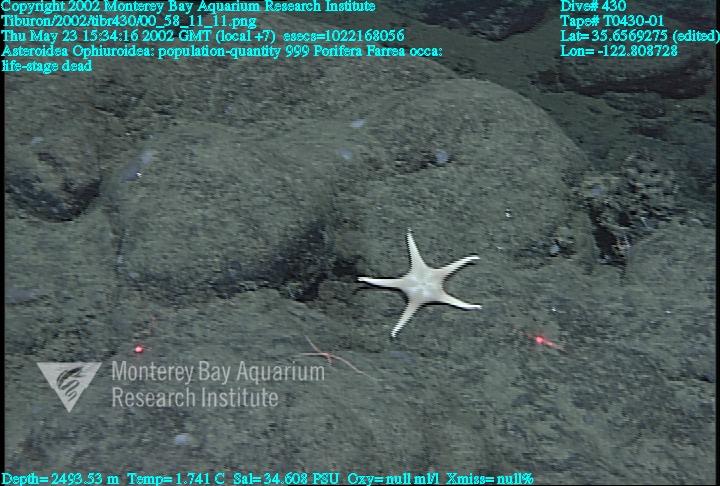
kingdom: Animalia
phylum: Porifera
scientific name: Porifera
